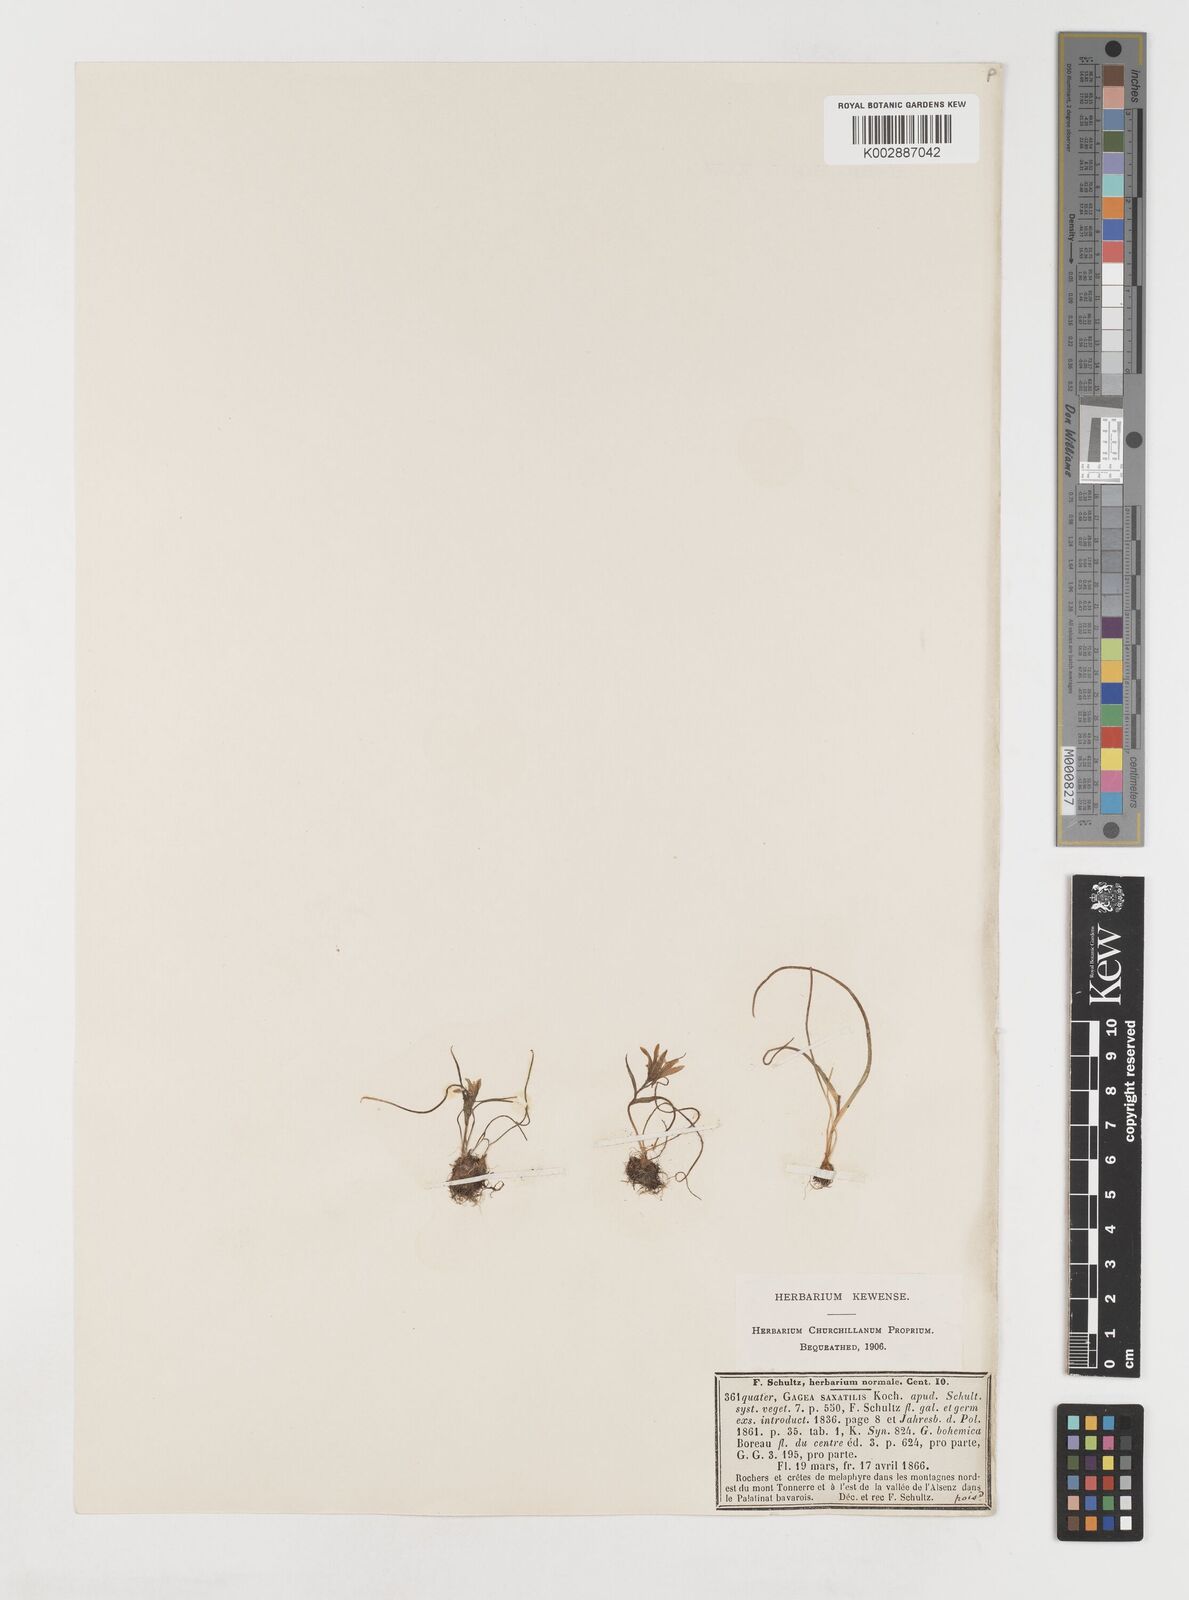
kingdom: Plantae
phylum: Tracheophyta
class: Liliopsida
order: Liliales
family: Liliaceae
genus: Gagea
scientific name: Gagea bohemica
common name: Early star-of-bethlehem
